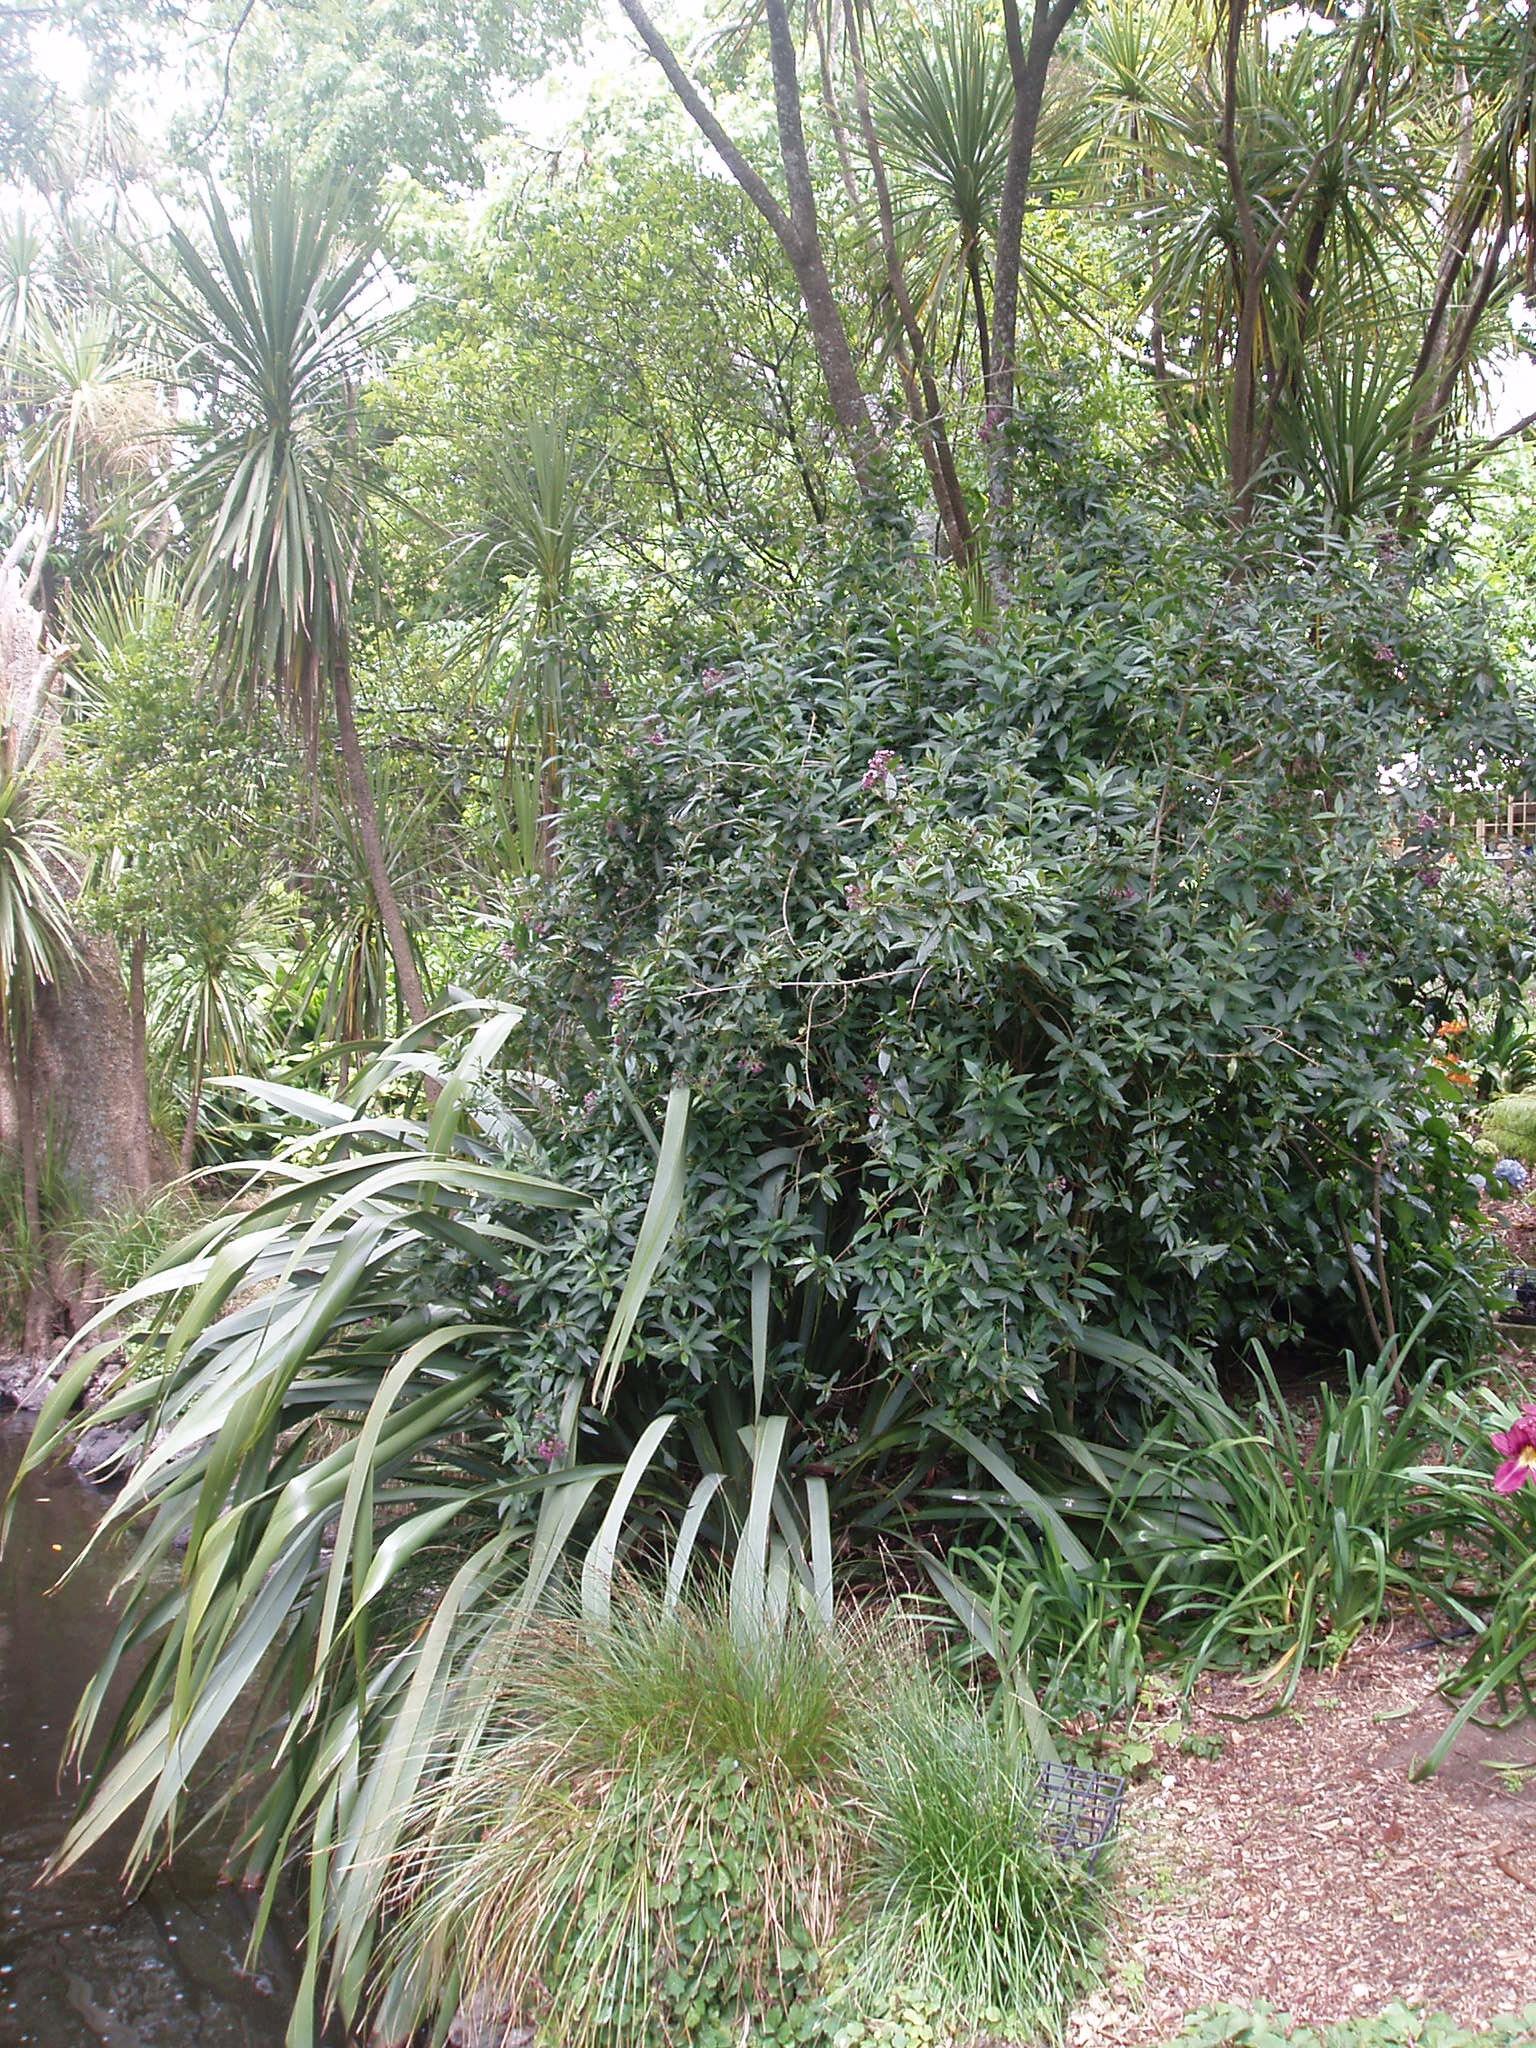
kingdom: Plantae
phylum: Tracheophyta
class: Magnoliopsida
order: Solanales
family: Solanaceae
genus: Cestrum
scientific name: Cestrum cultum
